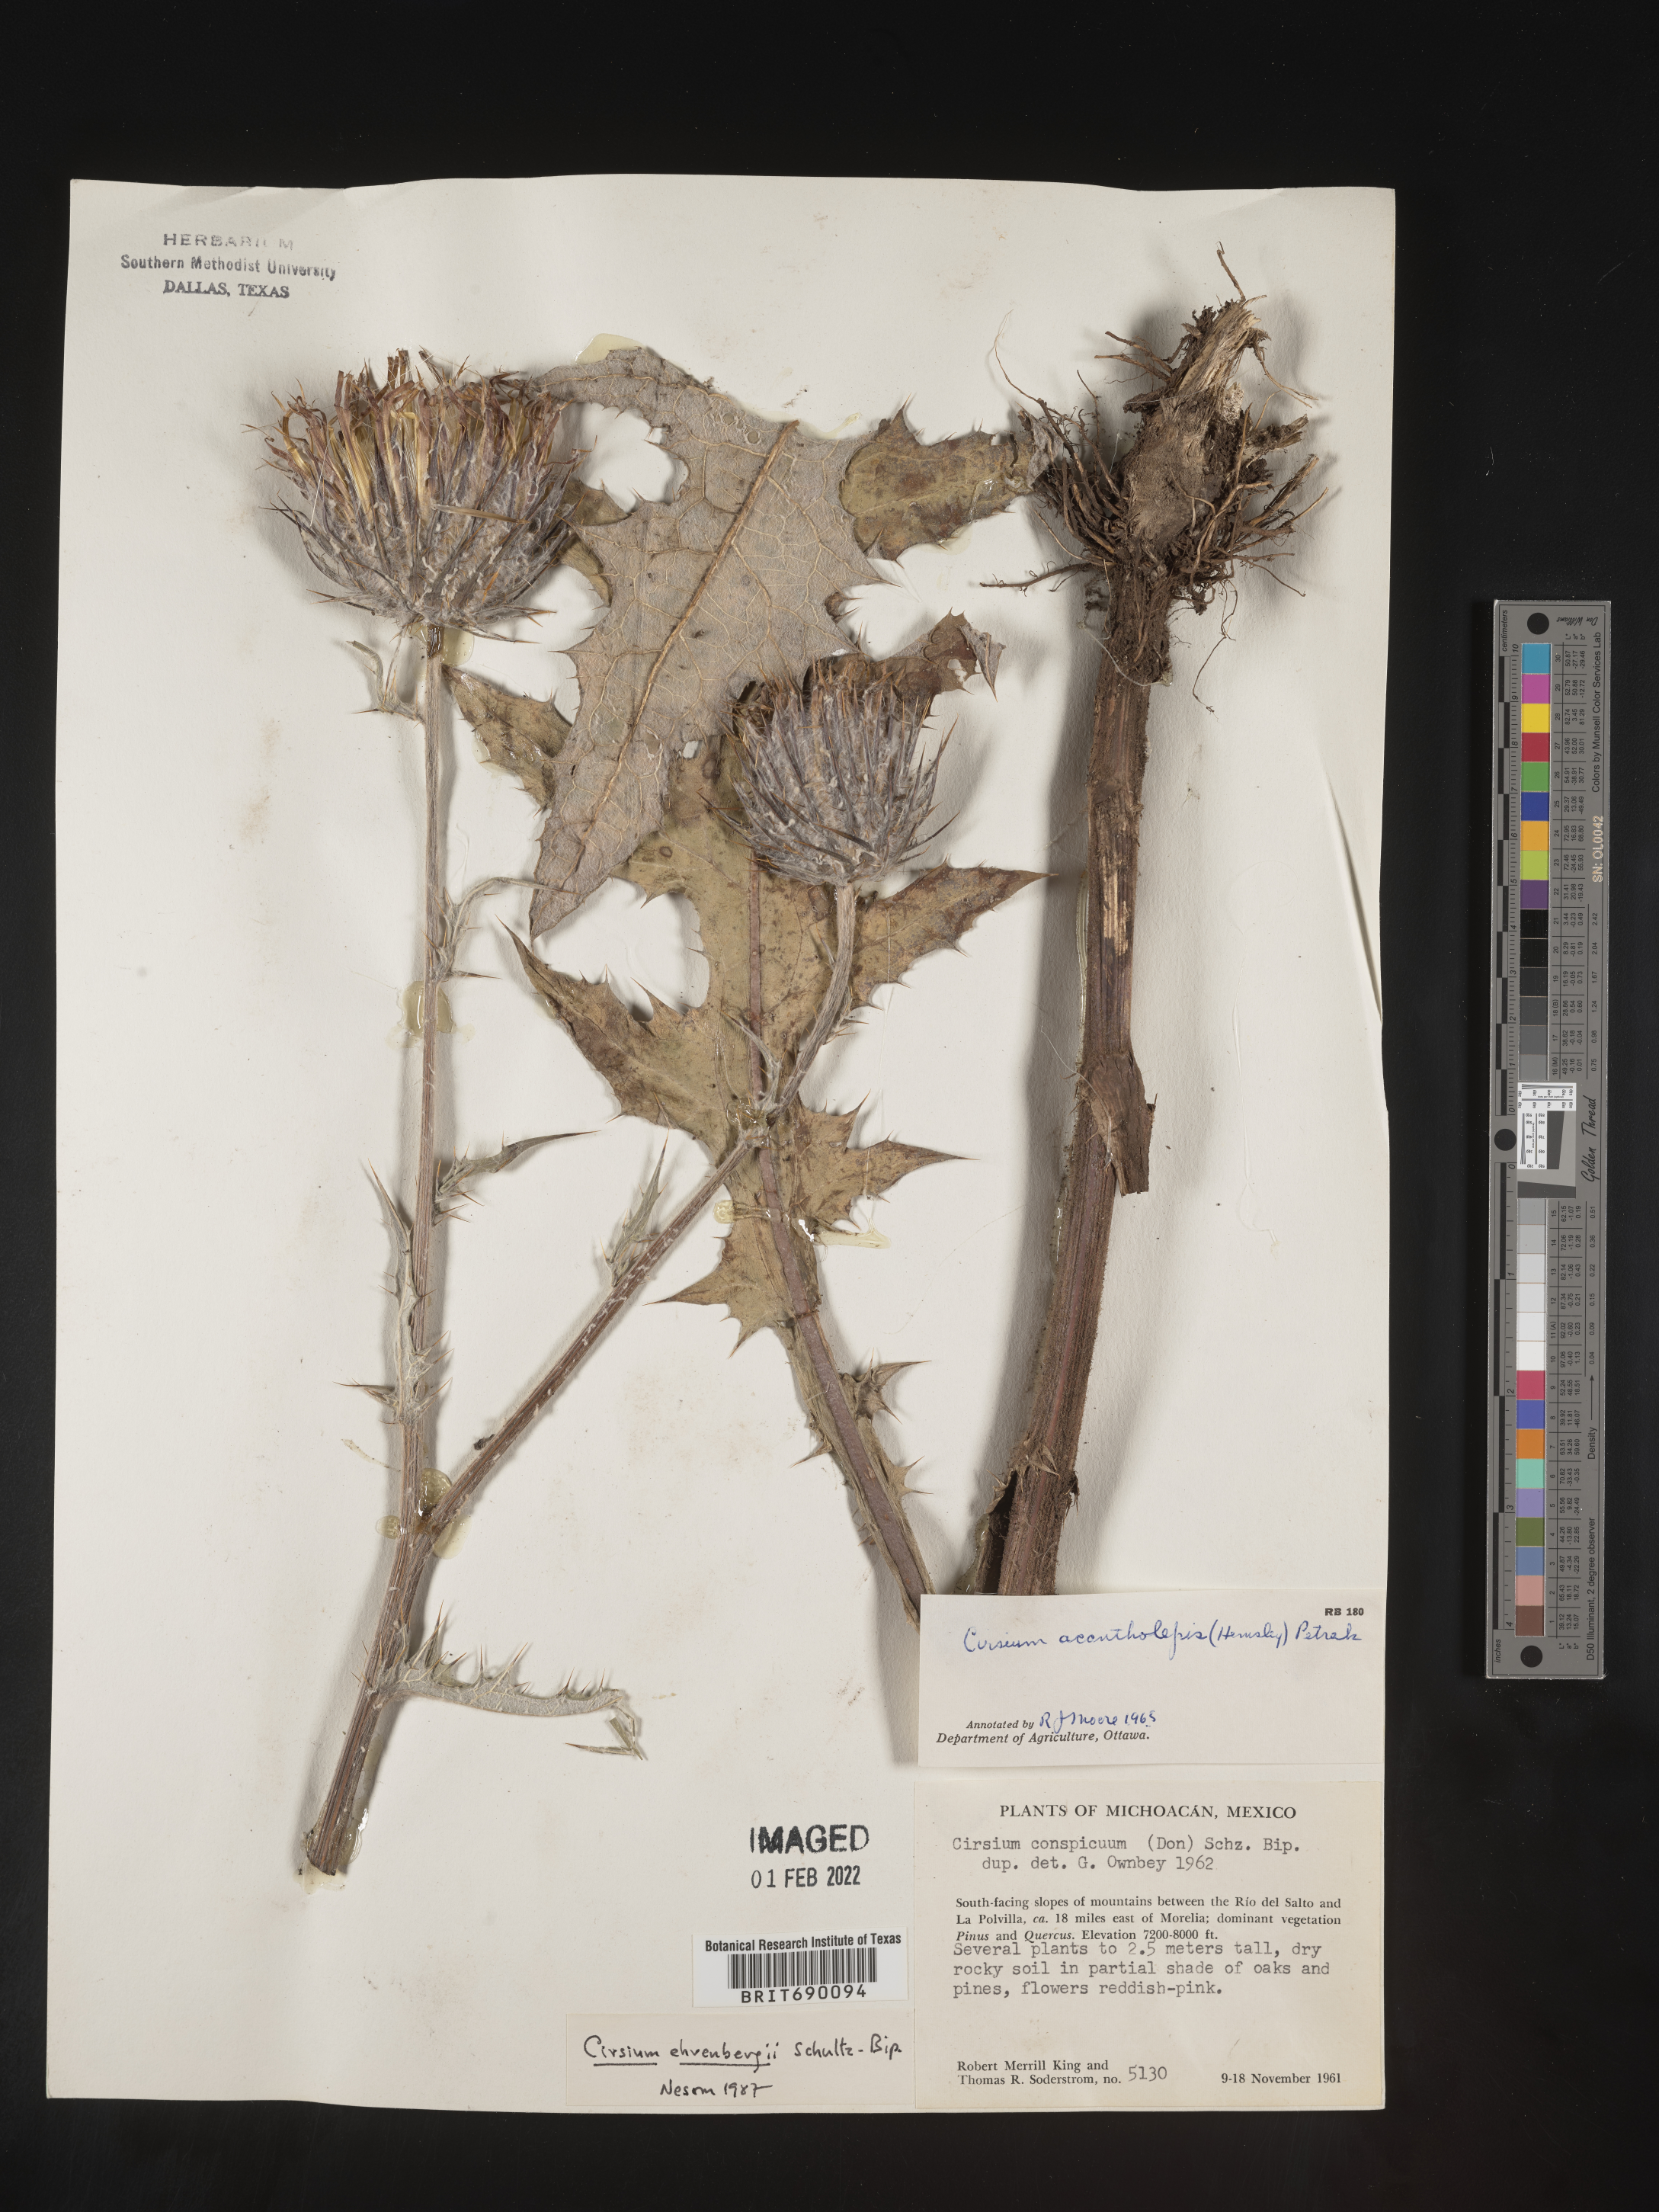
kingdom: Plantae
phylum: Tracheophyta
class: Magnoliopsida
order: Asterales
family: Asteraceae
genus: Cirsium
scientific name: Cirsium
